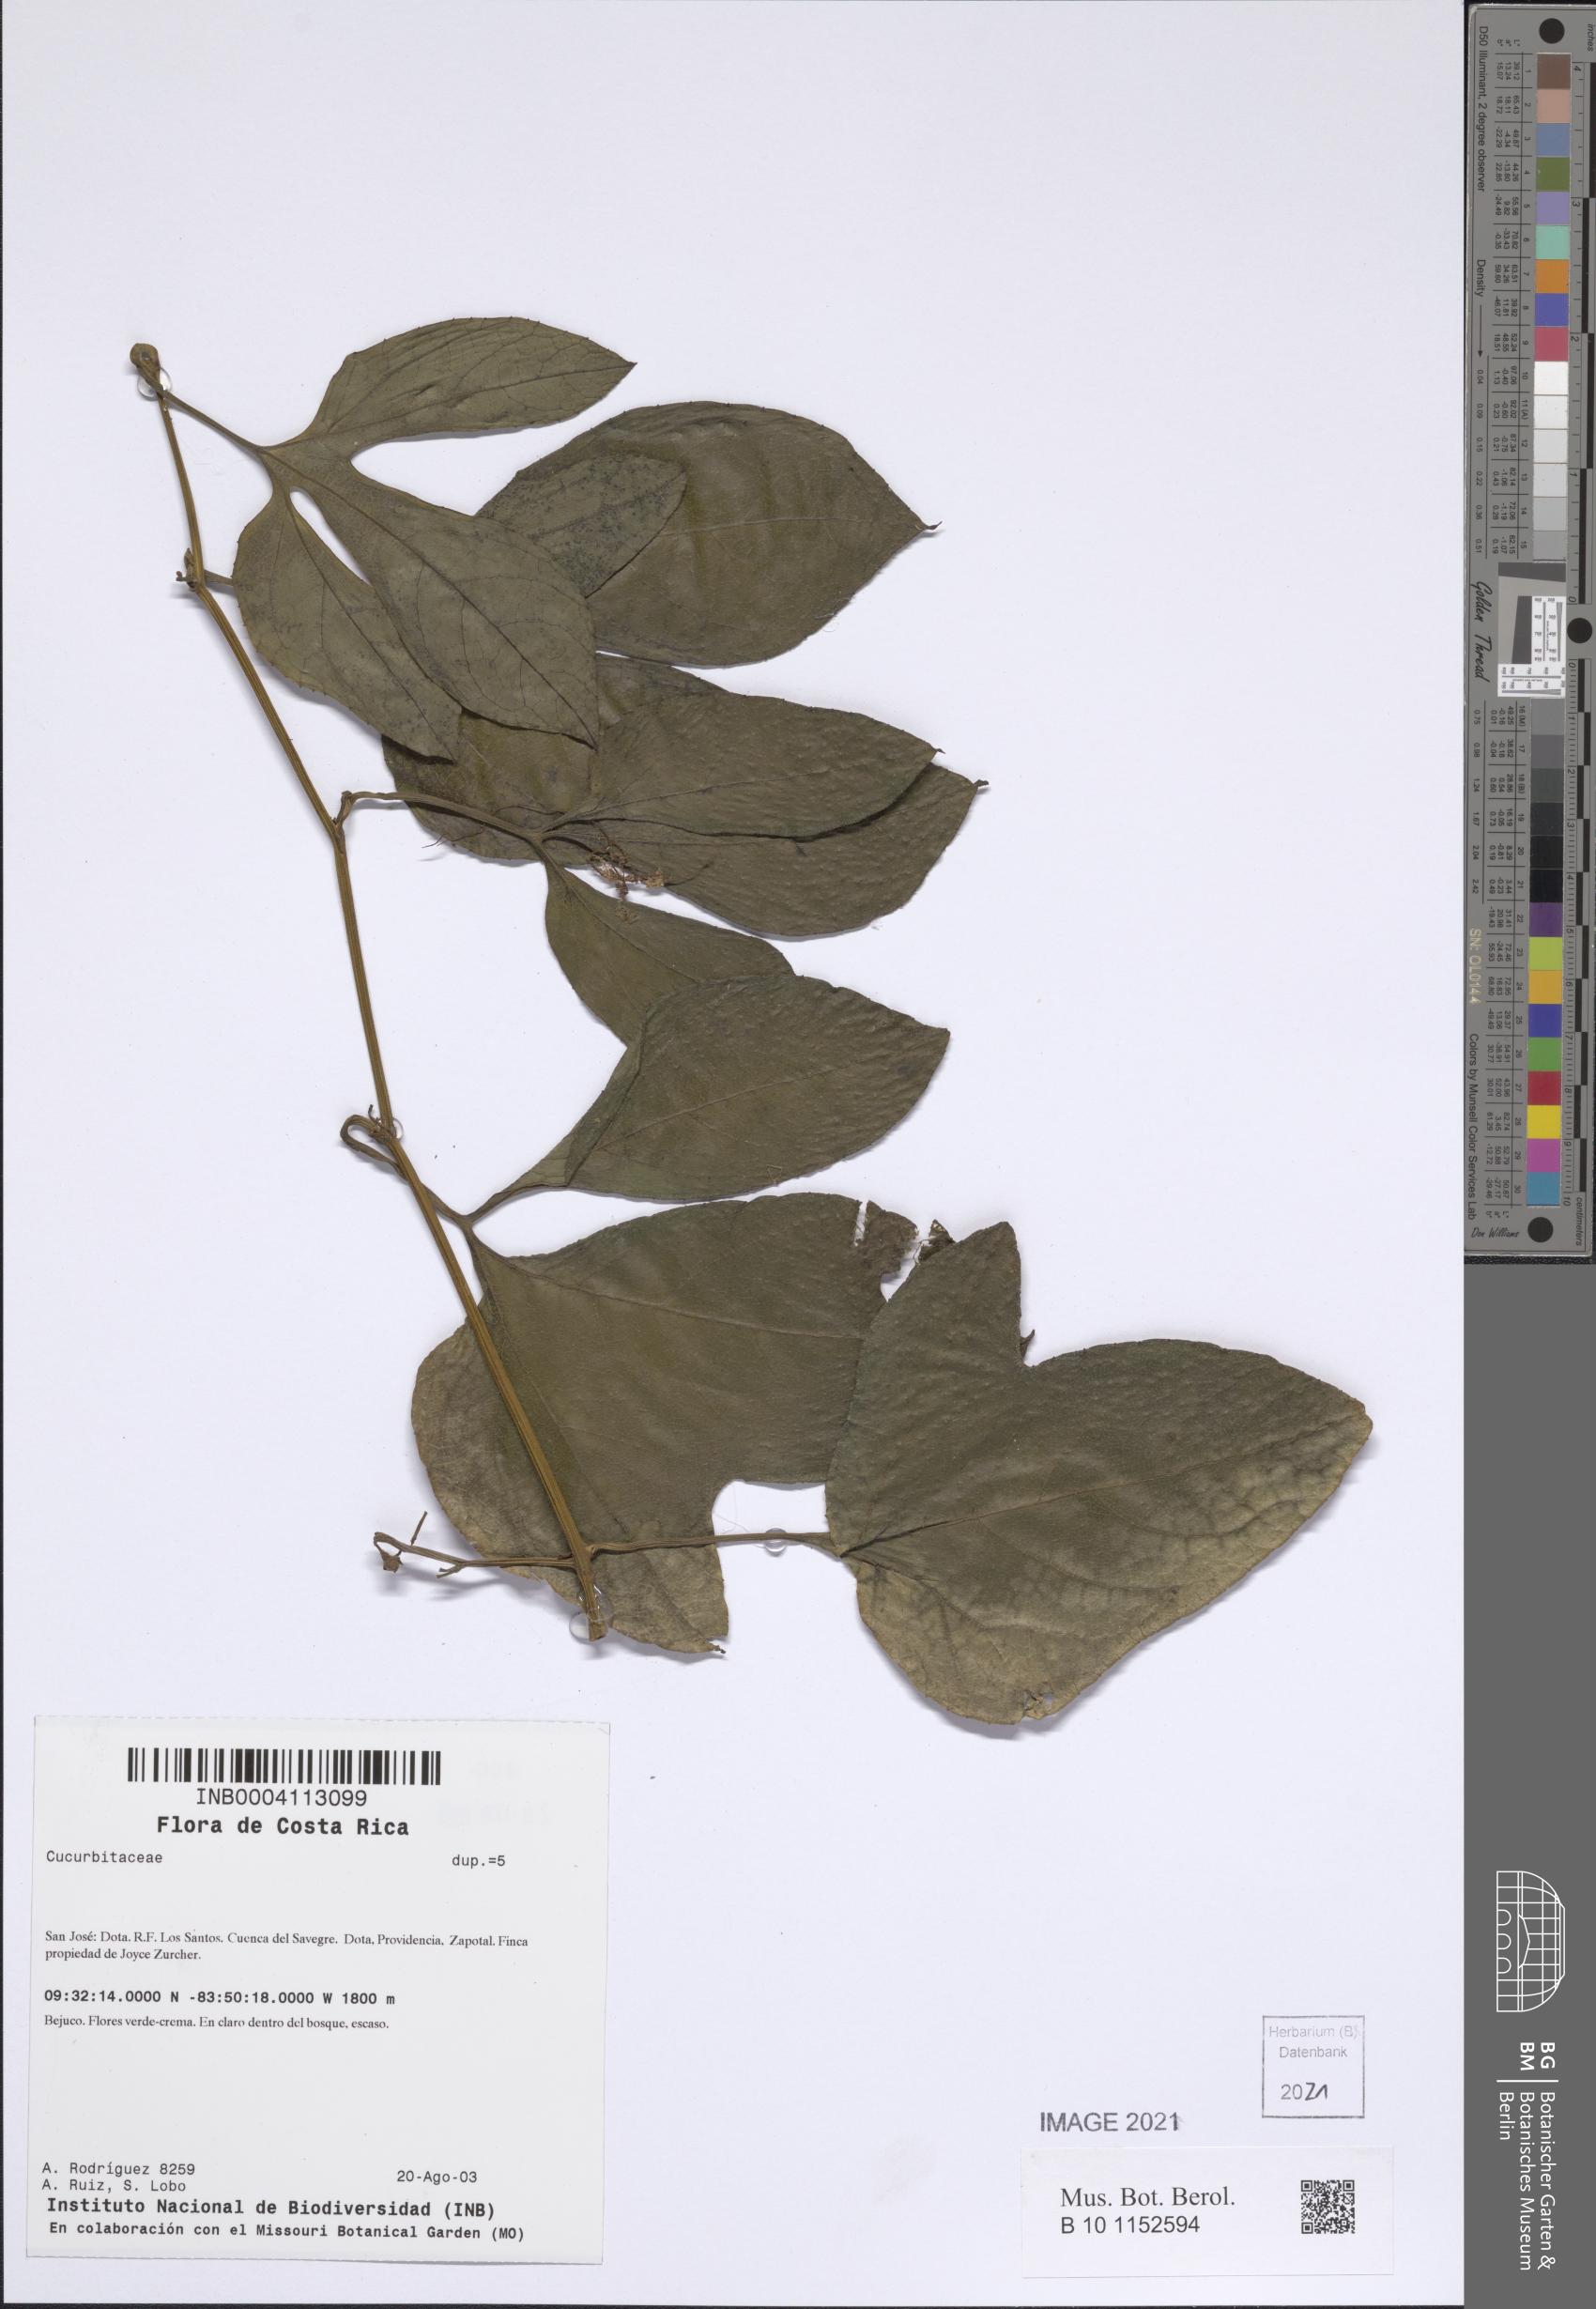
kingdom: Plantae
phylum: Tracheophyta
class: Magnoliopsida
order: Cucurbitales
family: Cucurbitaceae
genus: Cayaponia
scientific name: Cayaponia buraeavii
